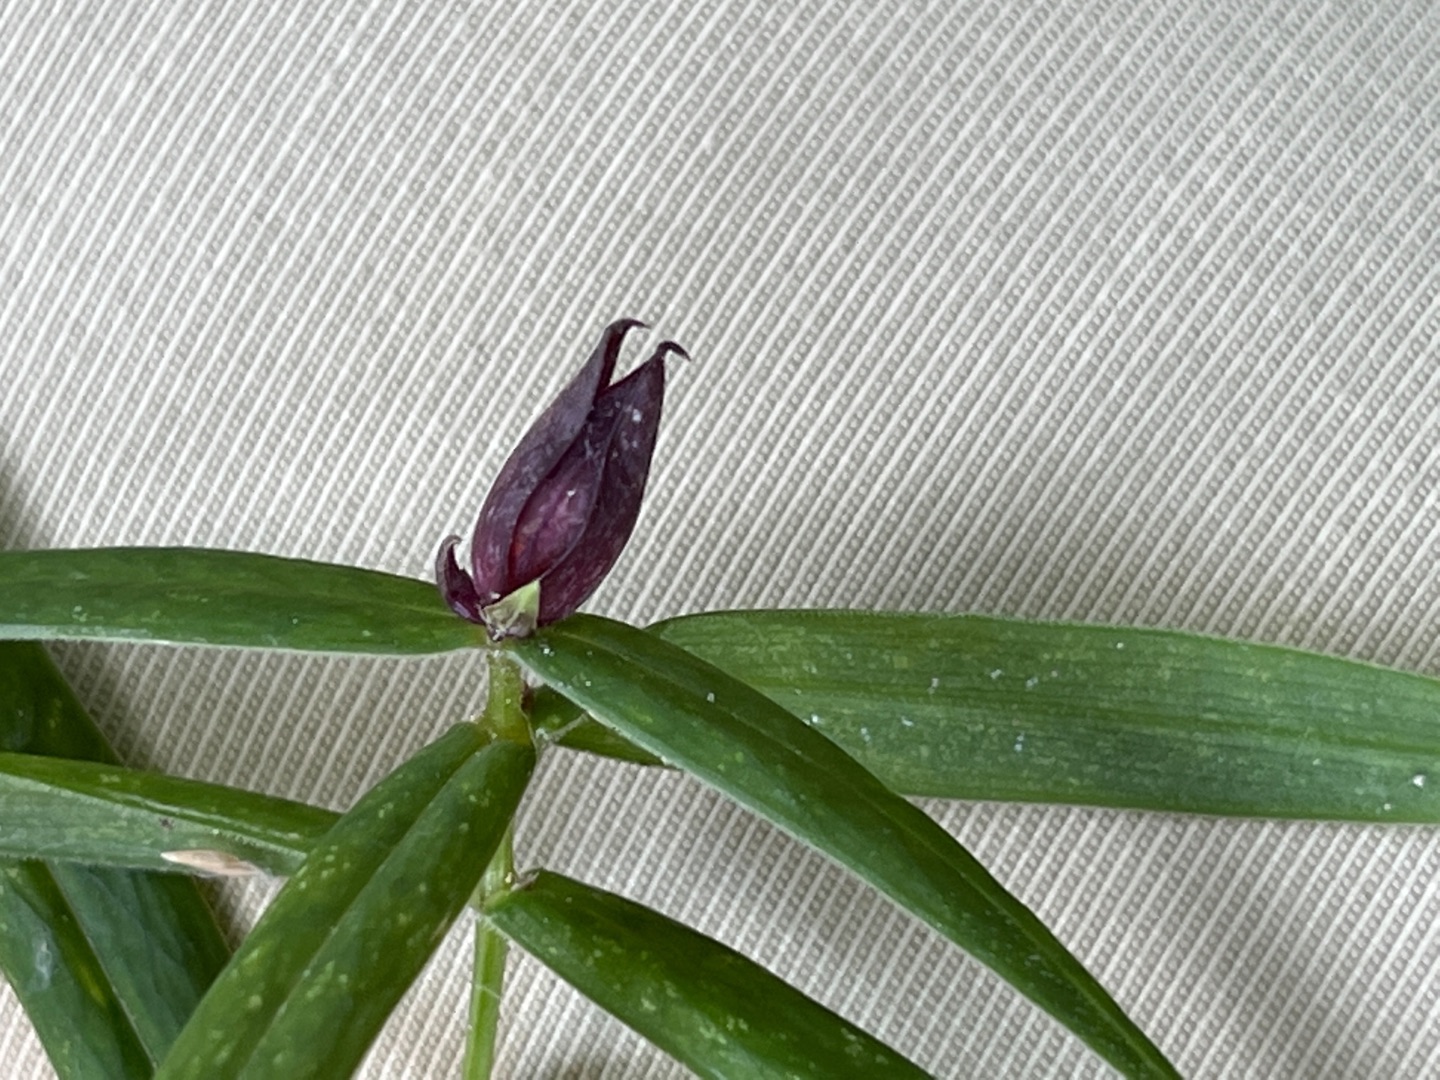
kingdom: Animalia
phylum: Arthropoda
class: Insecta
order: Diptera
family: Cecidomyiidae
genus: Dasineura
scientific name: Dasineura stellariae
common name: Fladstjernegalmyg
